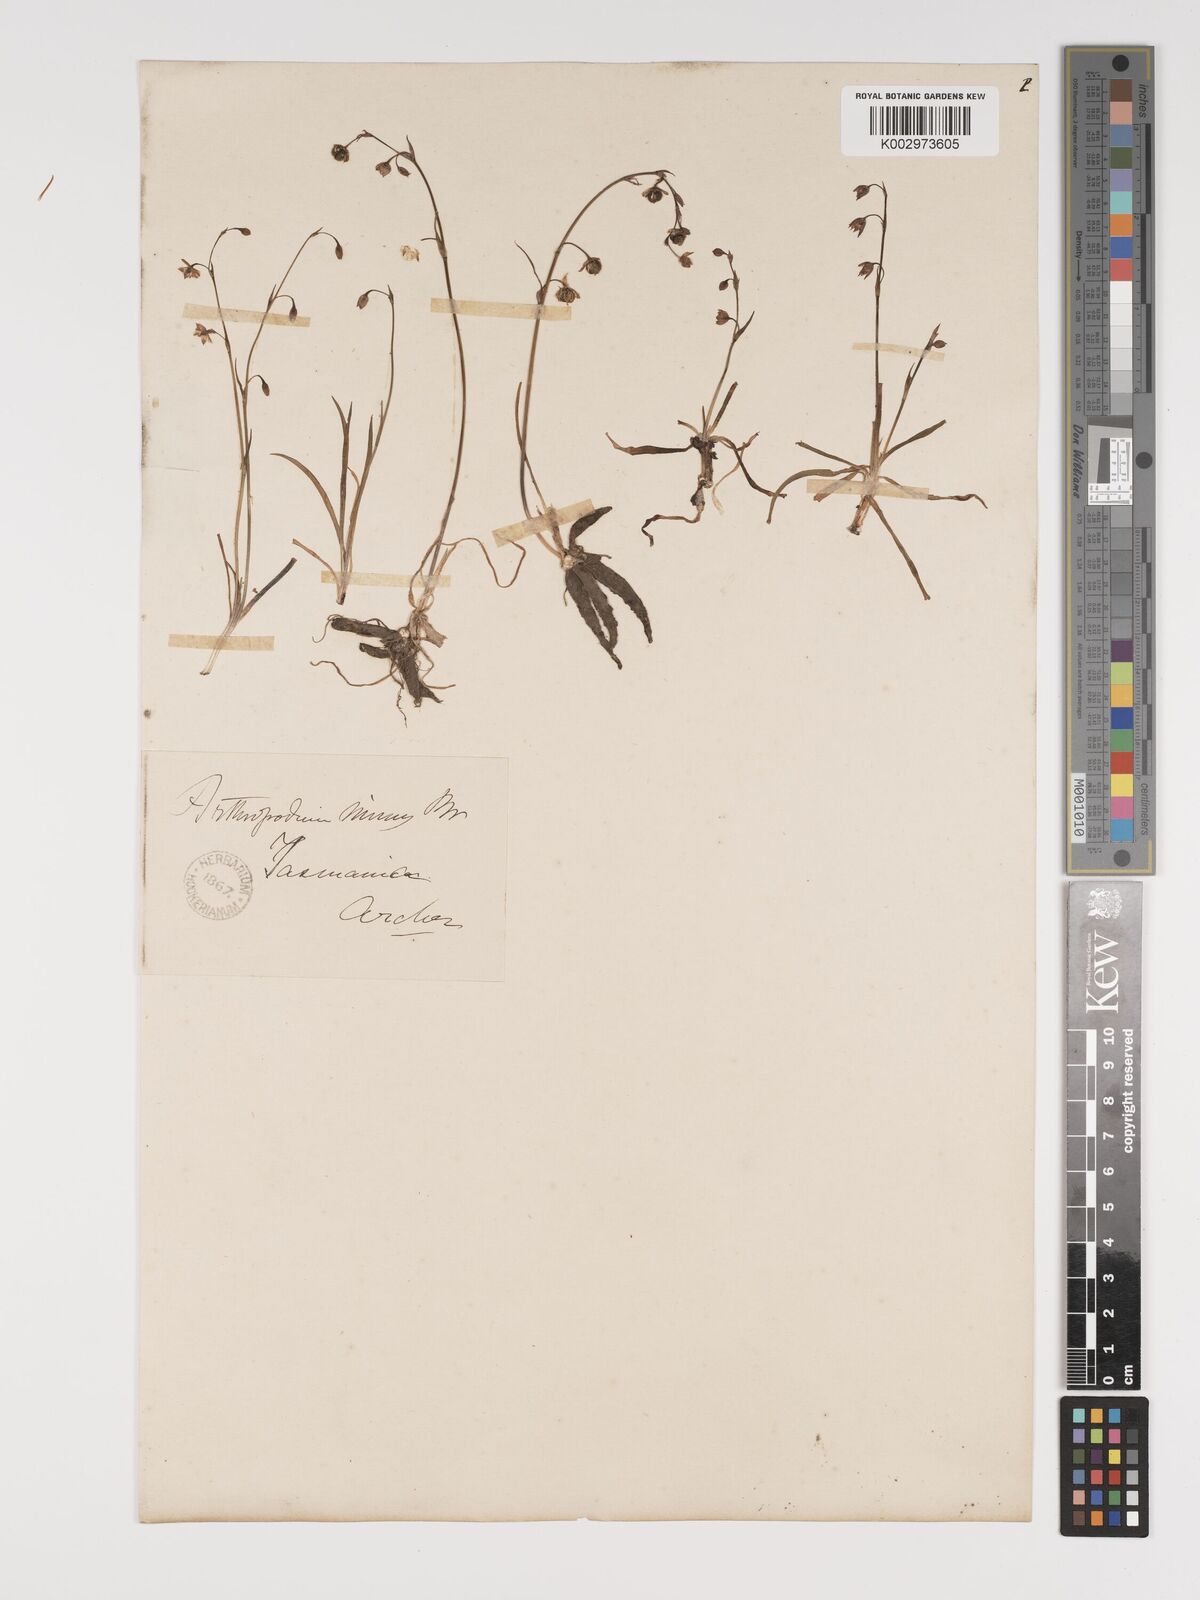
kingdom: Plantae
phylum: Tracheophyta
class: Liliopsida
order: Asparagales
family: Asparagaceae
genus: Arthropodium
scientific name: Arthropodium minus
